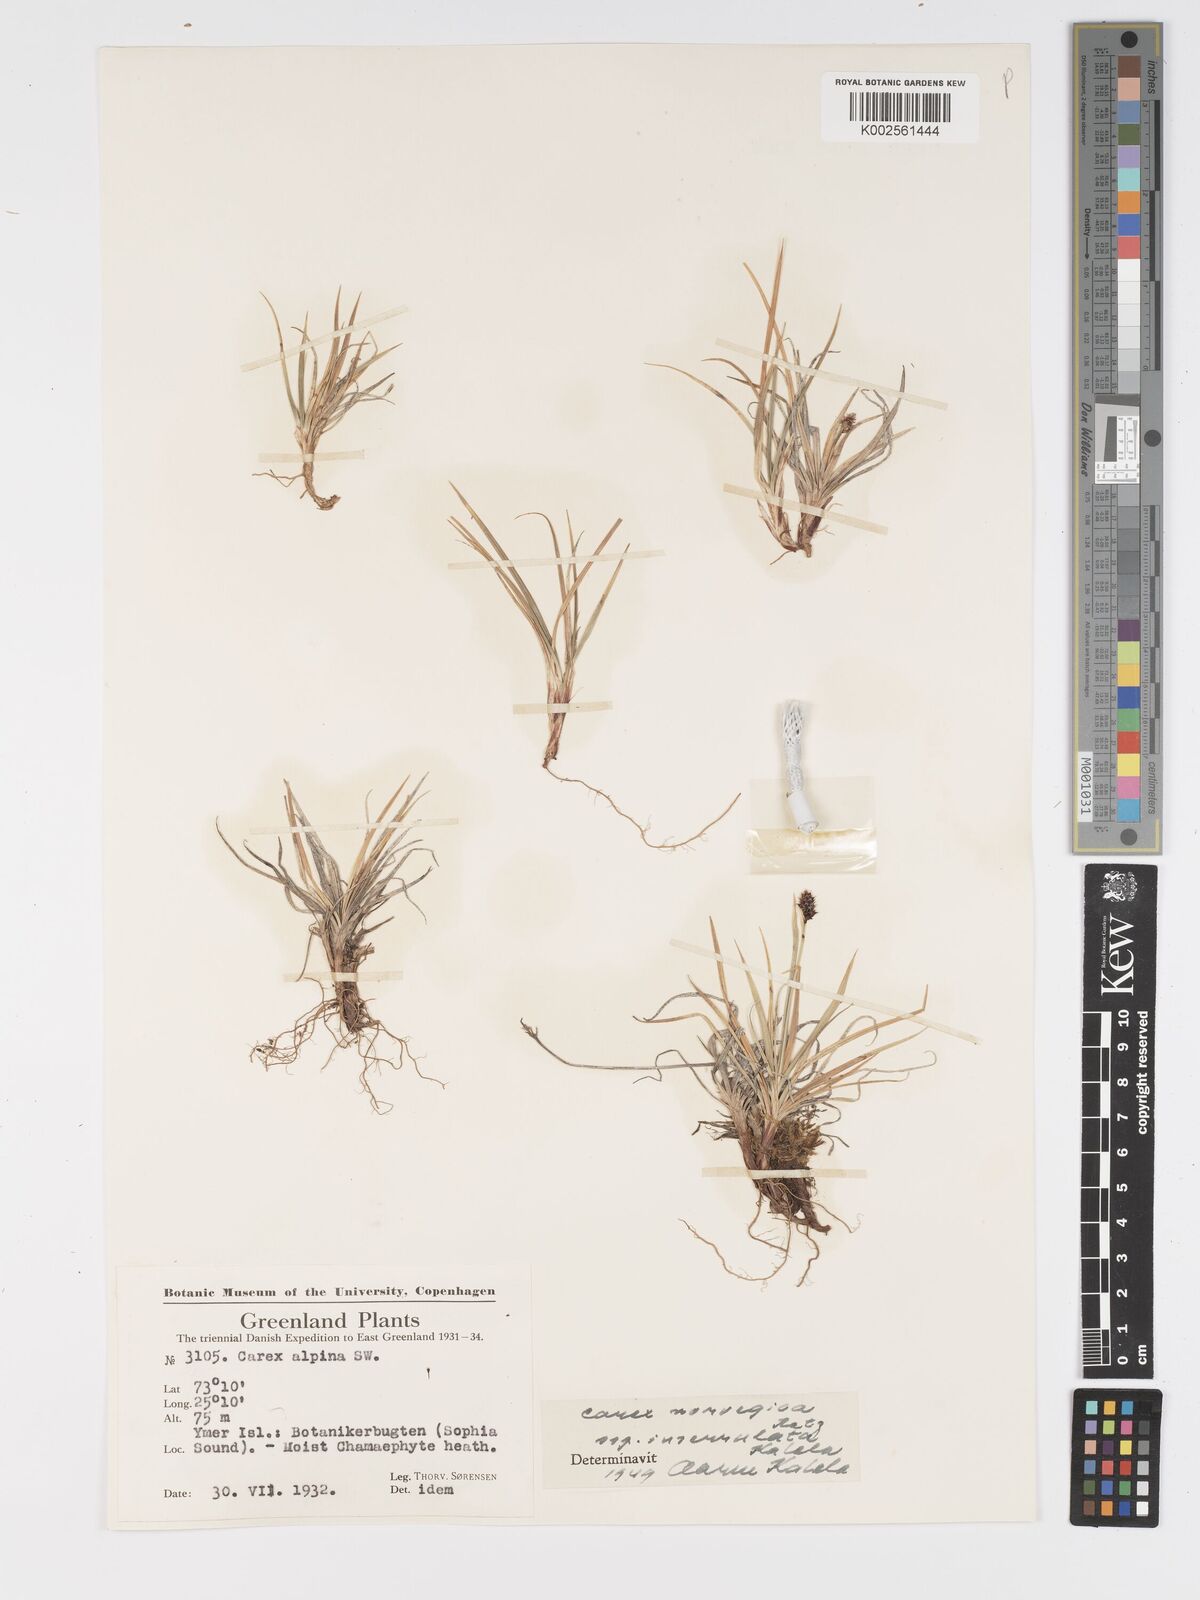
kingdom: Plantae
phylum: Tracheophyta
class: Liliopsida
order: Poales
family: Cyperaceae
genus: Carex
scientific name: Carex norvegica
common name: Close-headed alpine-sedge
